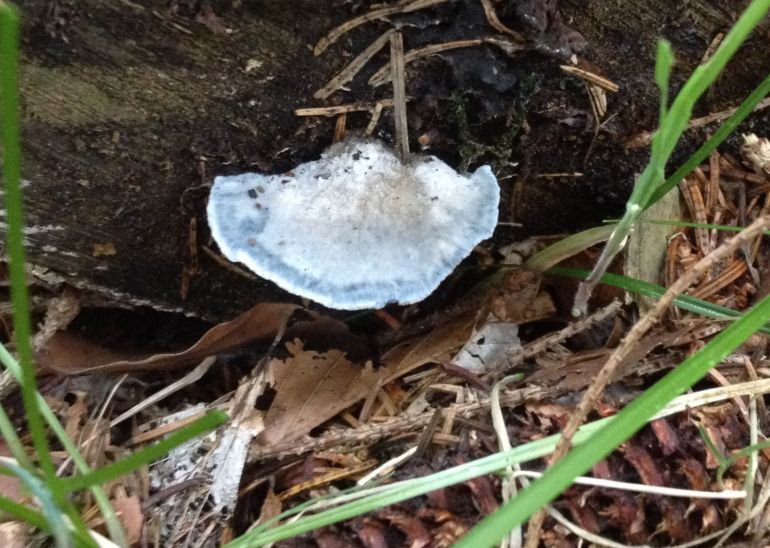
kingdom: Fungi
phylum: Basidiomycota
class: Agaricomycetes
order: Polyporales
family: Polyporaceae
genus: Cyanosporus
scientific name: Cyanosporus caesius
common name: blålig kødporesvamp
